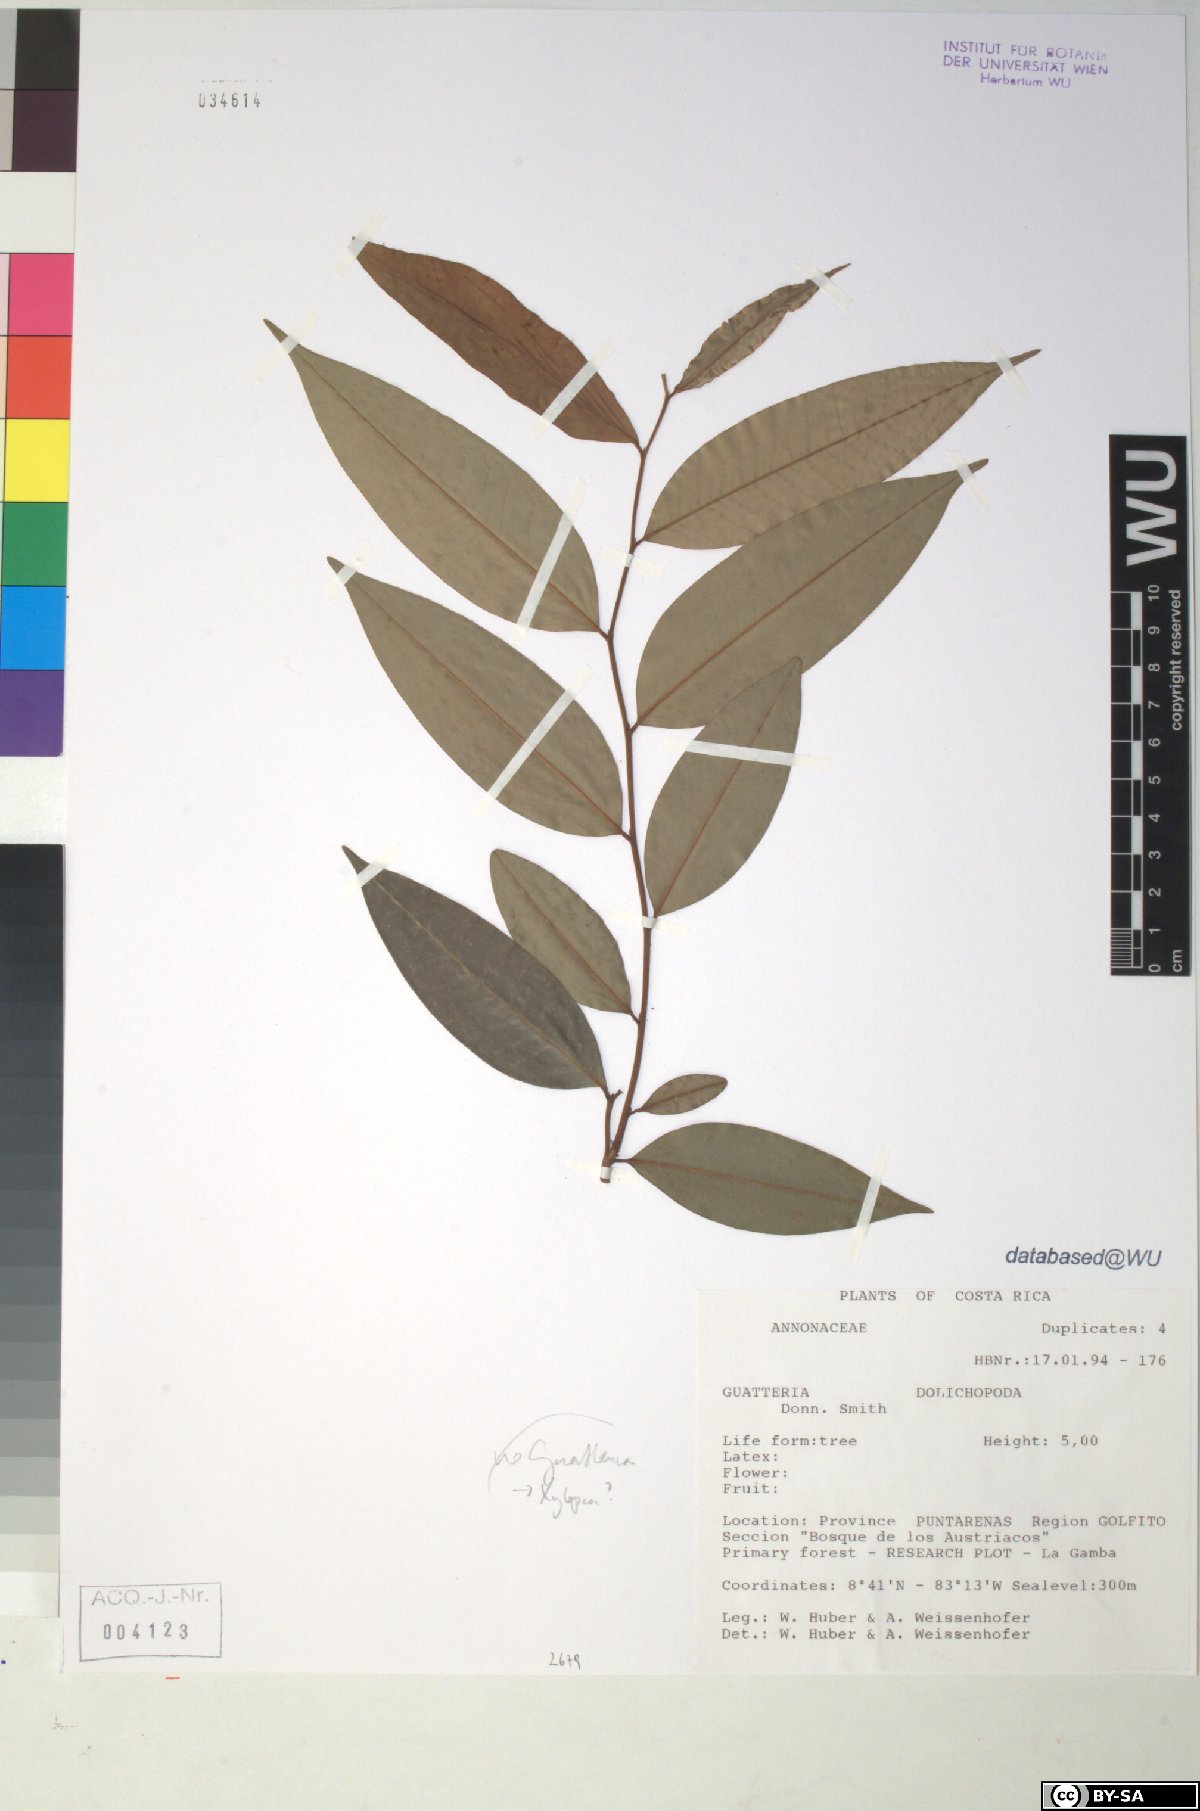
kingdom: Plantae
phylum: Tracheophyta
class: Magnoliopsida
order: Magnoliales
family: Annonaceae
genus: Xylopia
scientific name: Xylopia
